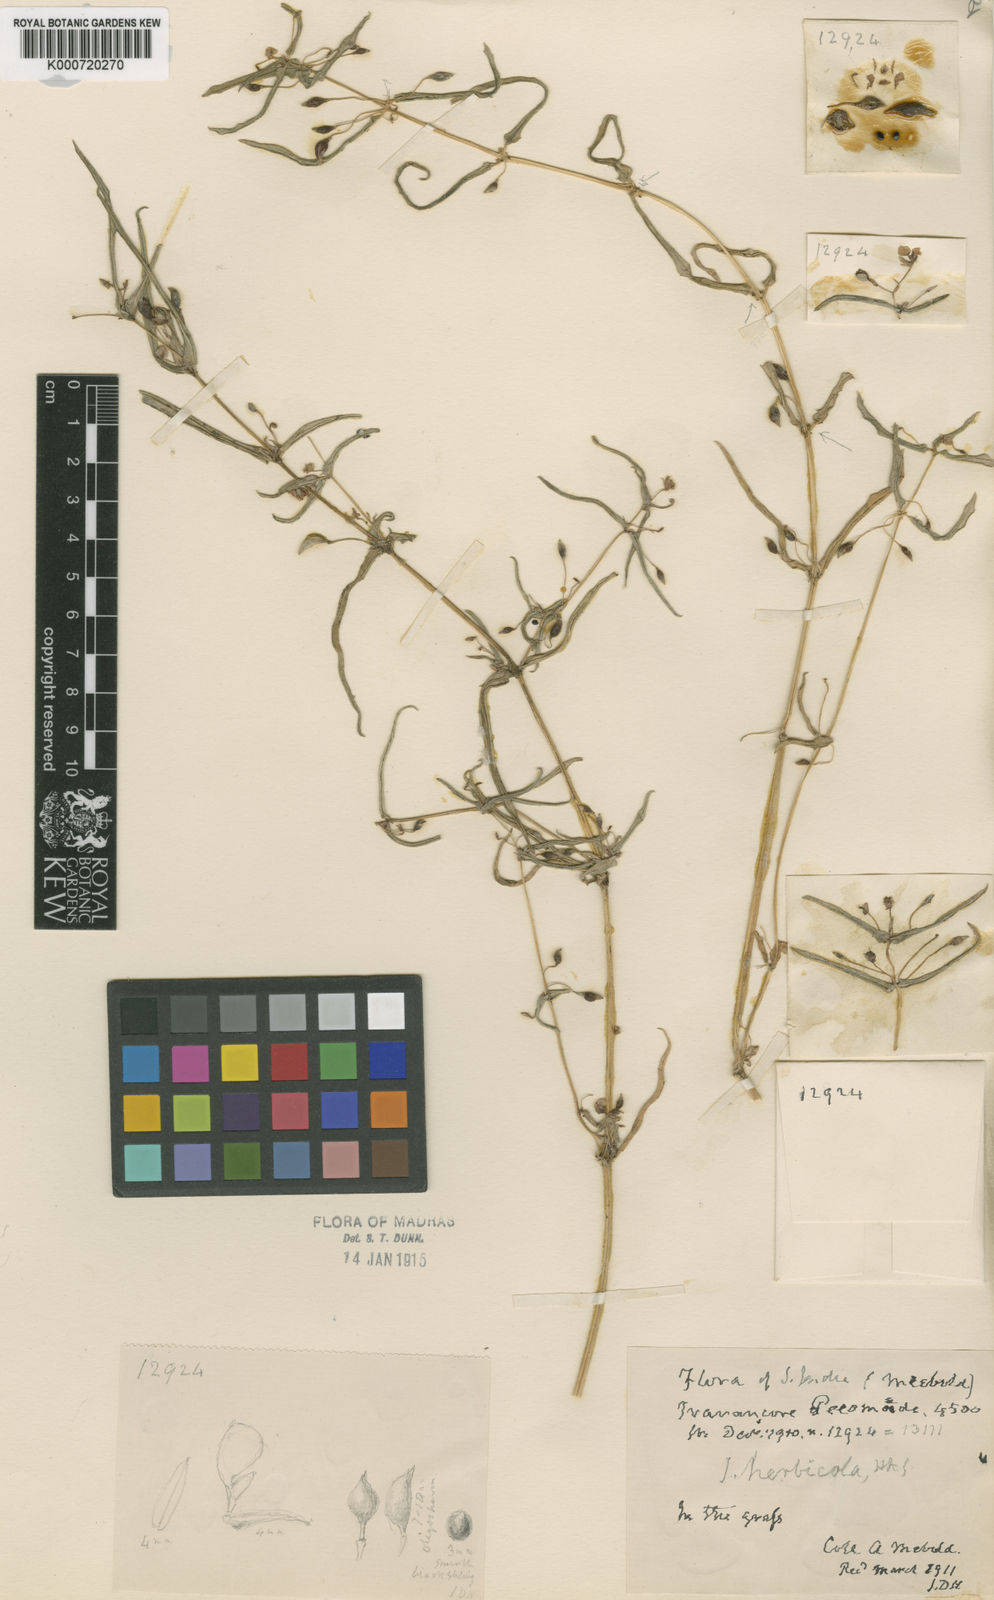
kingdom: Plantae
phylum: Tracheophyta
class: Magnoliopsida
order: Ericales
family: Balsaminaceae
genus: Impatiens
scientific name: Impatiens herbicola
